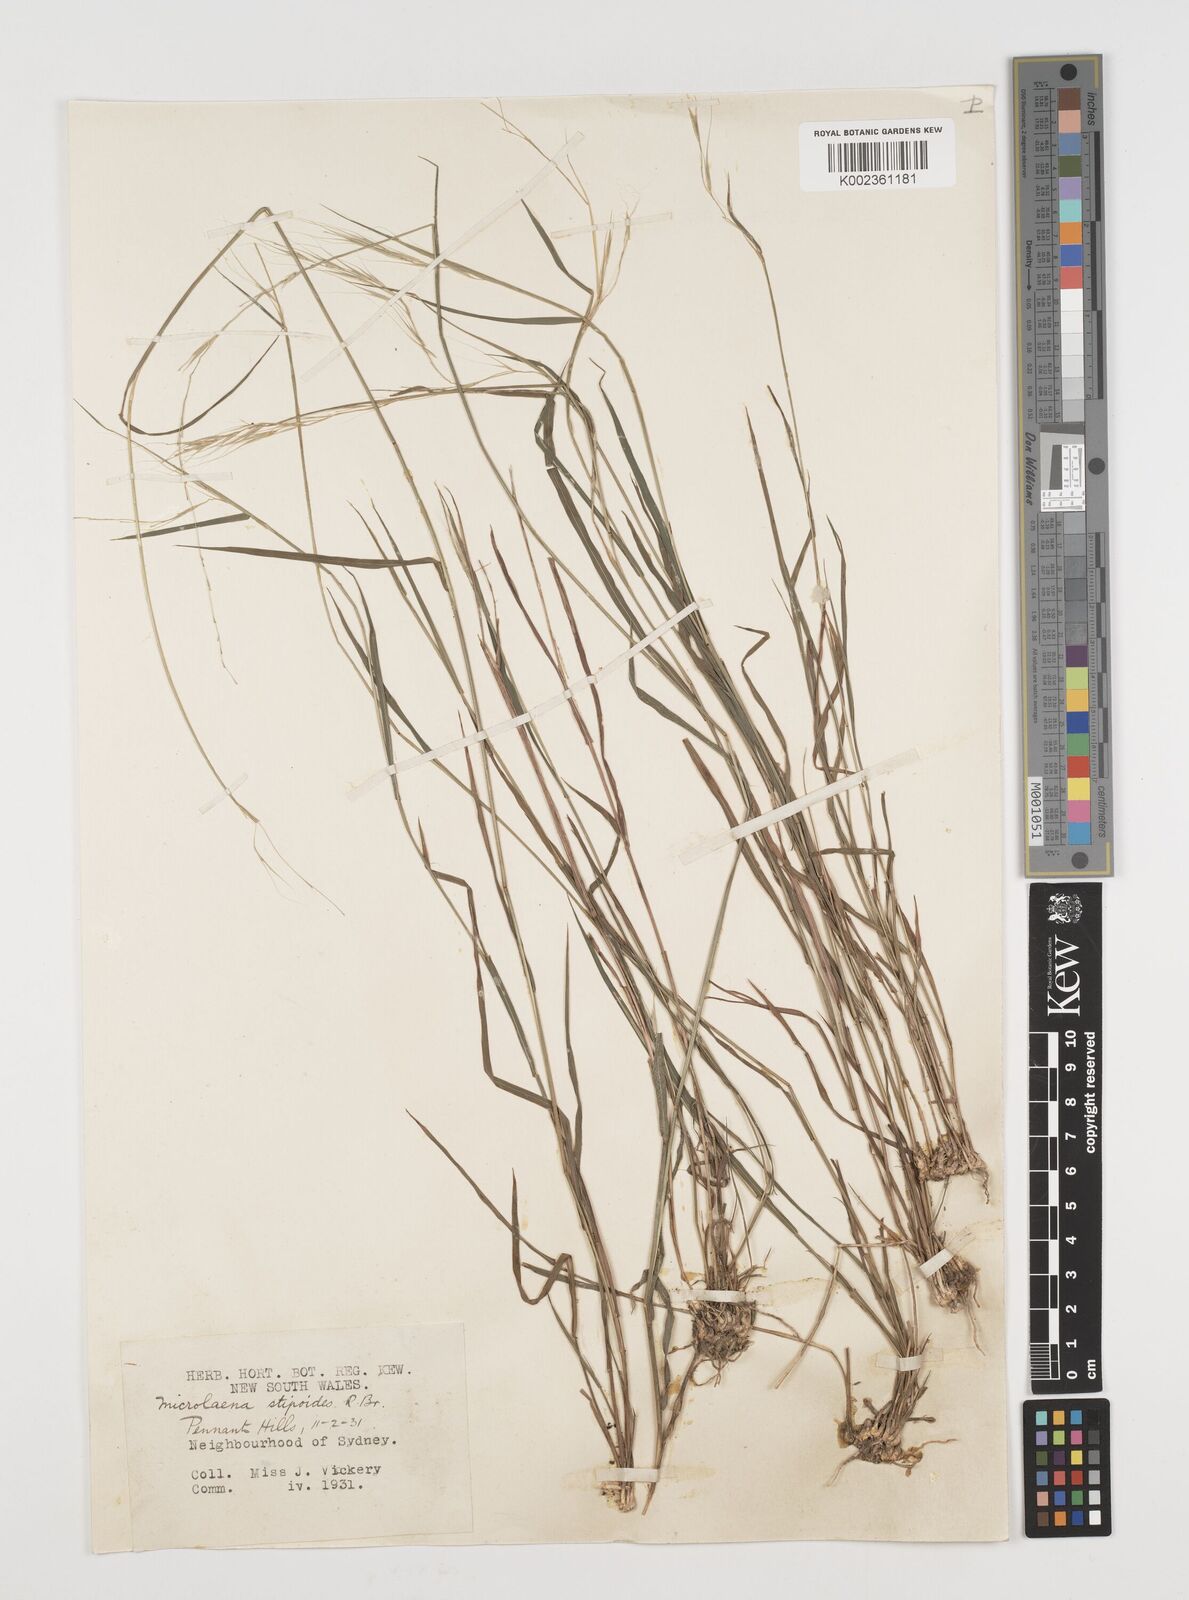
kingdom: Plantae
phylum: Tracheophyta
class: Liliopsida
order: Poales
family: Poaceae
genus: Microlaena
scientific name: Microlaena stipoides
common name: Meadow ricegrass
